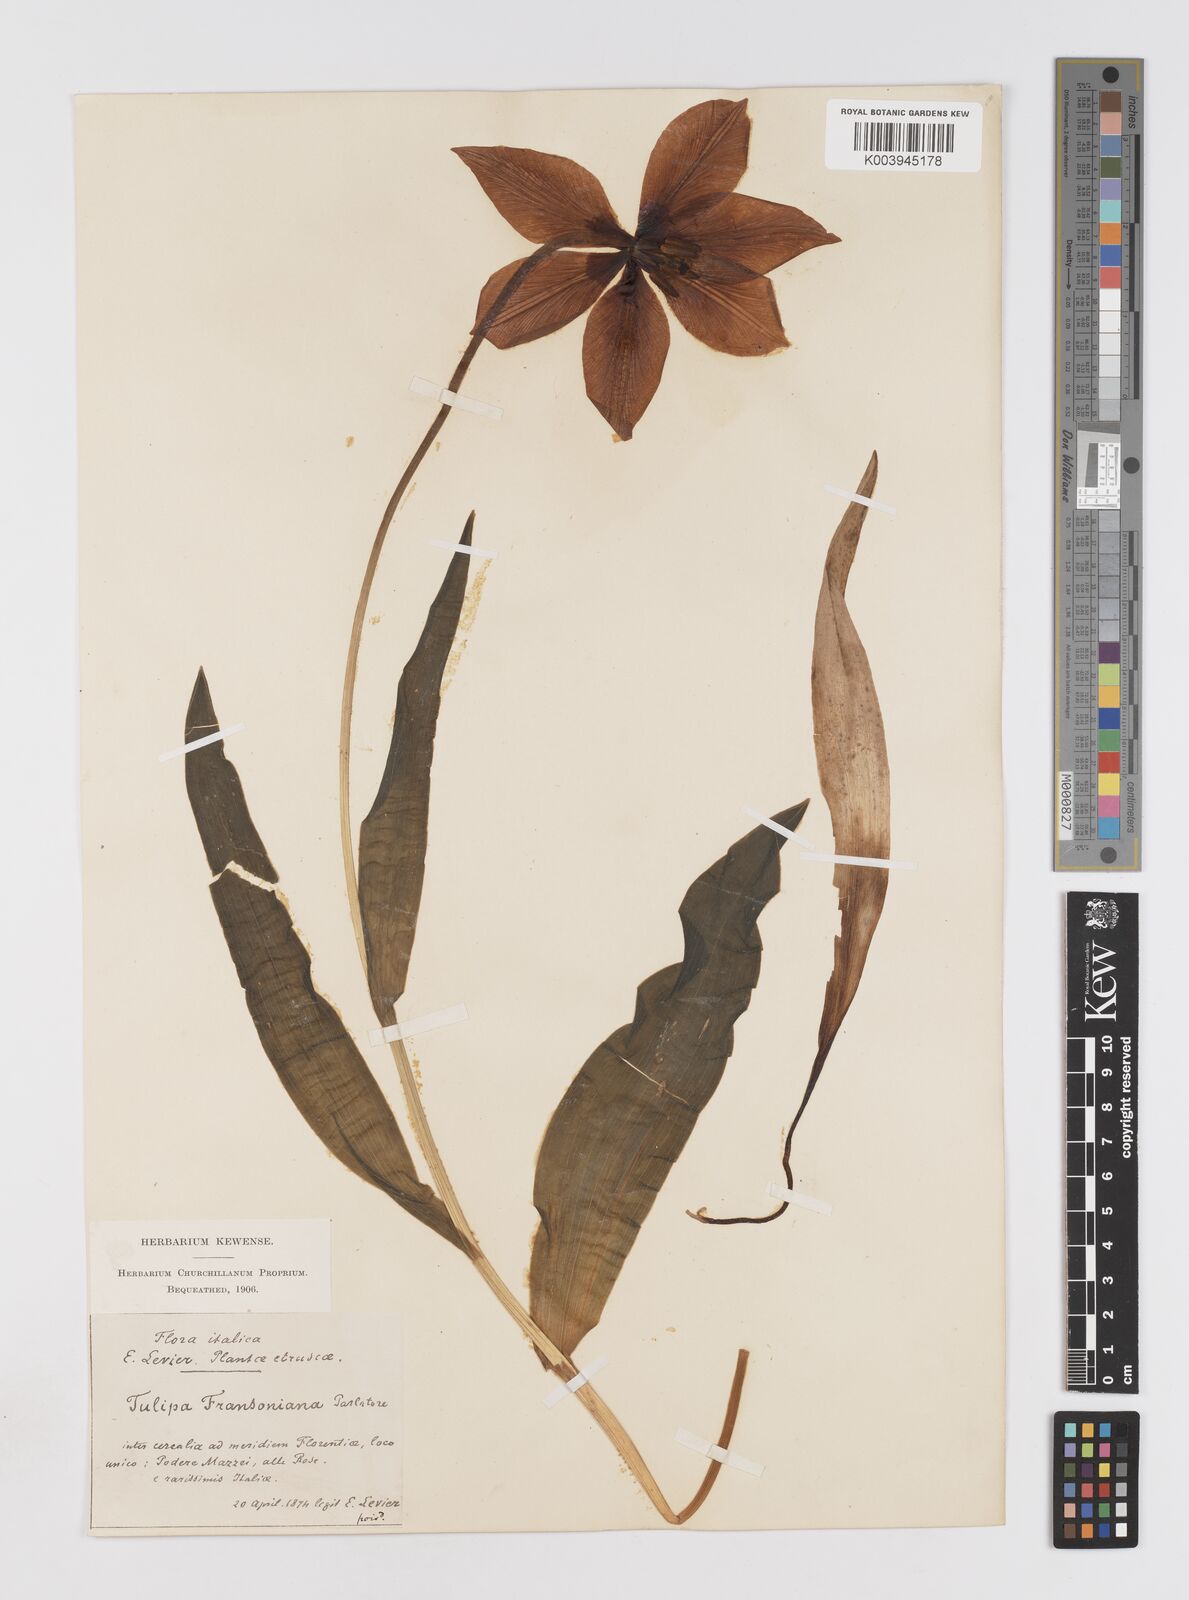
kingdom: Plantae
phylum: Tracheophyta
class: Liliopsida
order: Liliales
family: Liliaceae
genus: Tulipa
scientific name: Tulipa gesneriana
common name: Garden tulip
